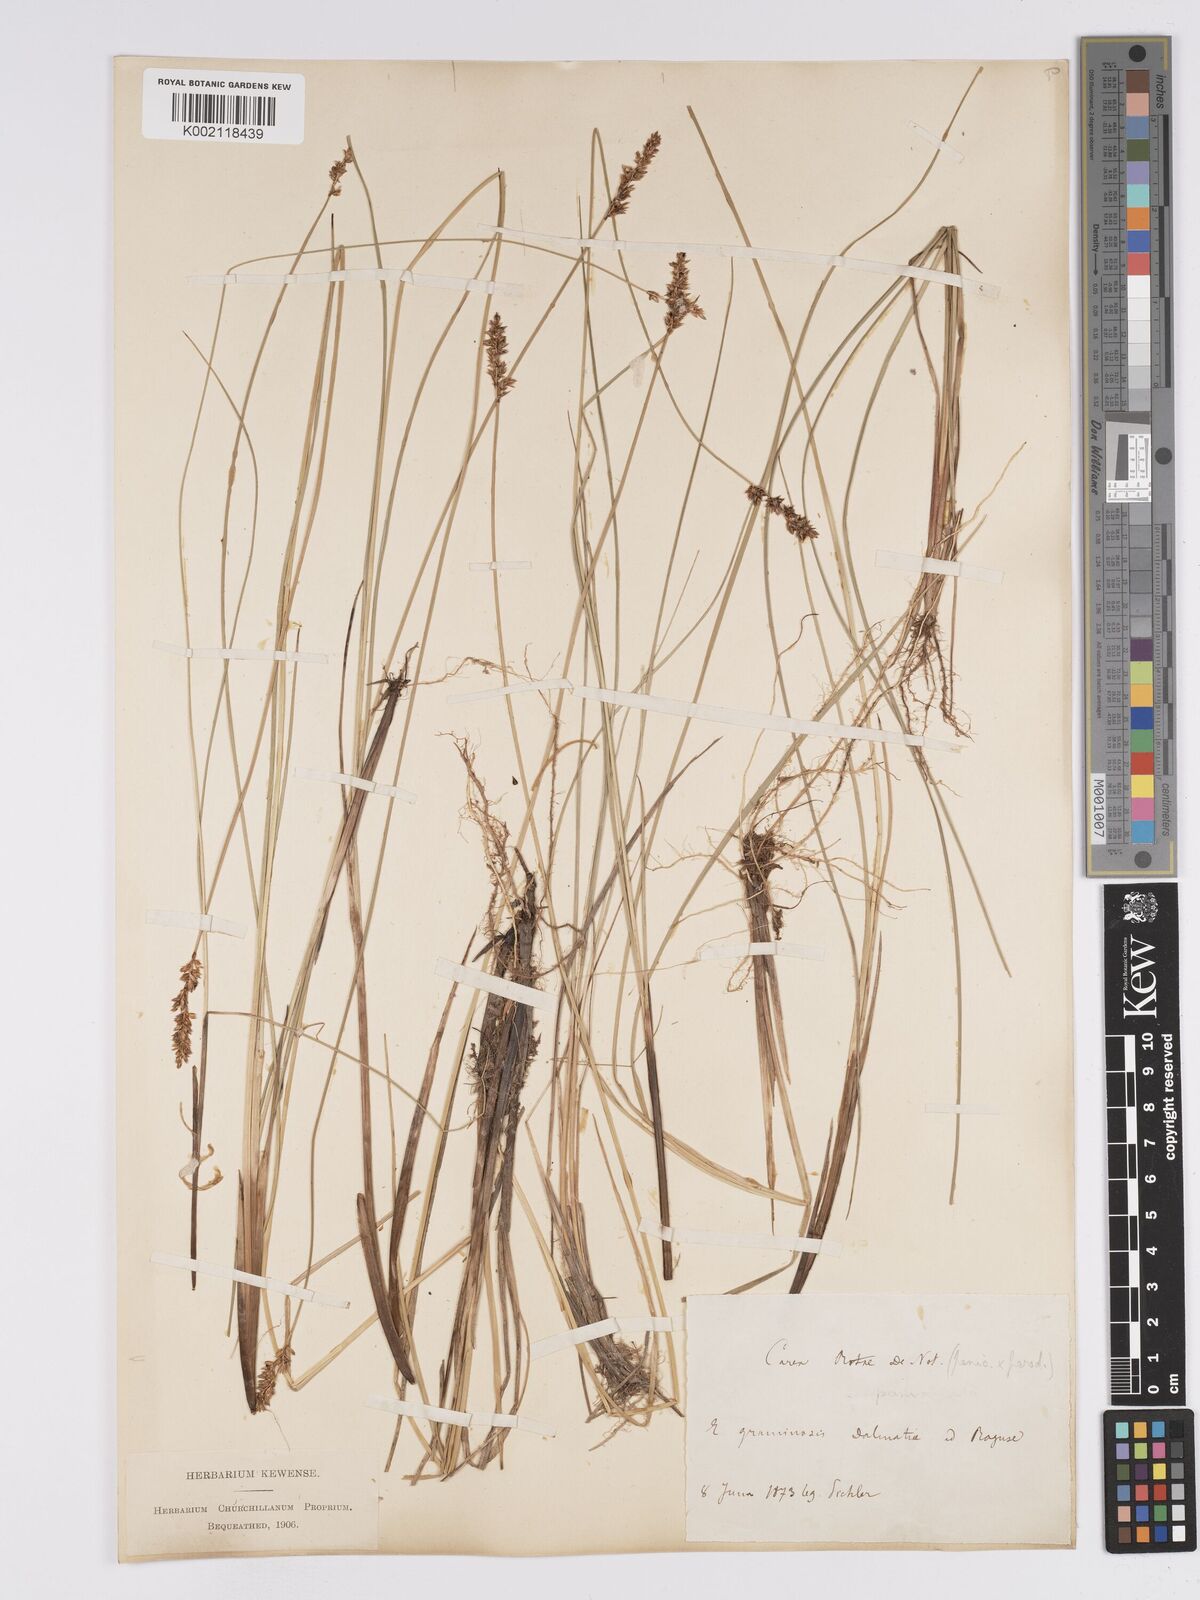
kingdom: Plantae
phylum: Tracheophyta
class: Liliopsida
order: Poales
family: Cyperaceae
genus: Carex
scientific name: Carex rotae
